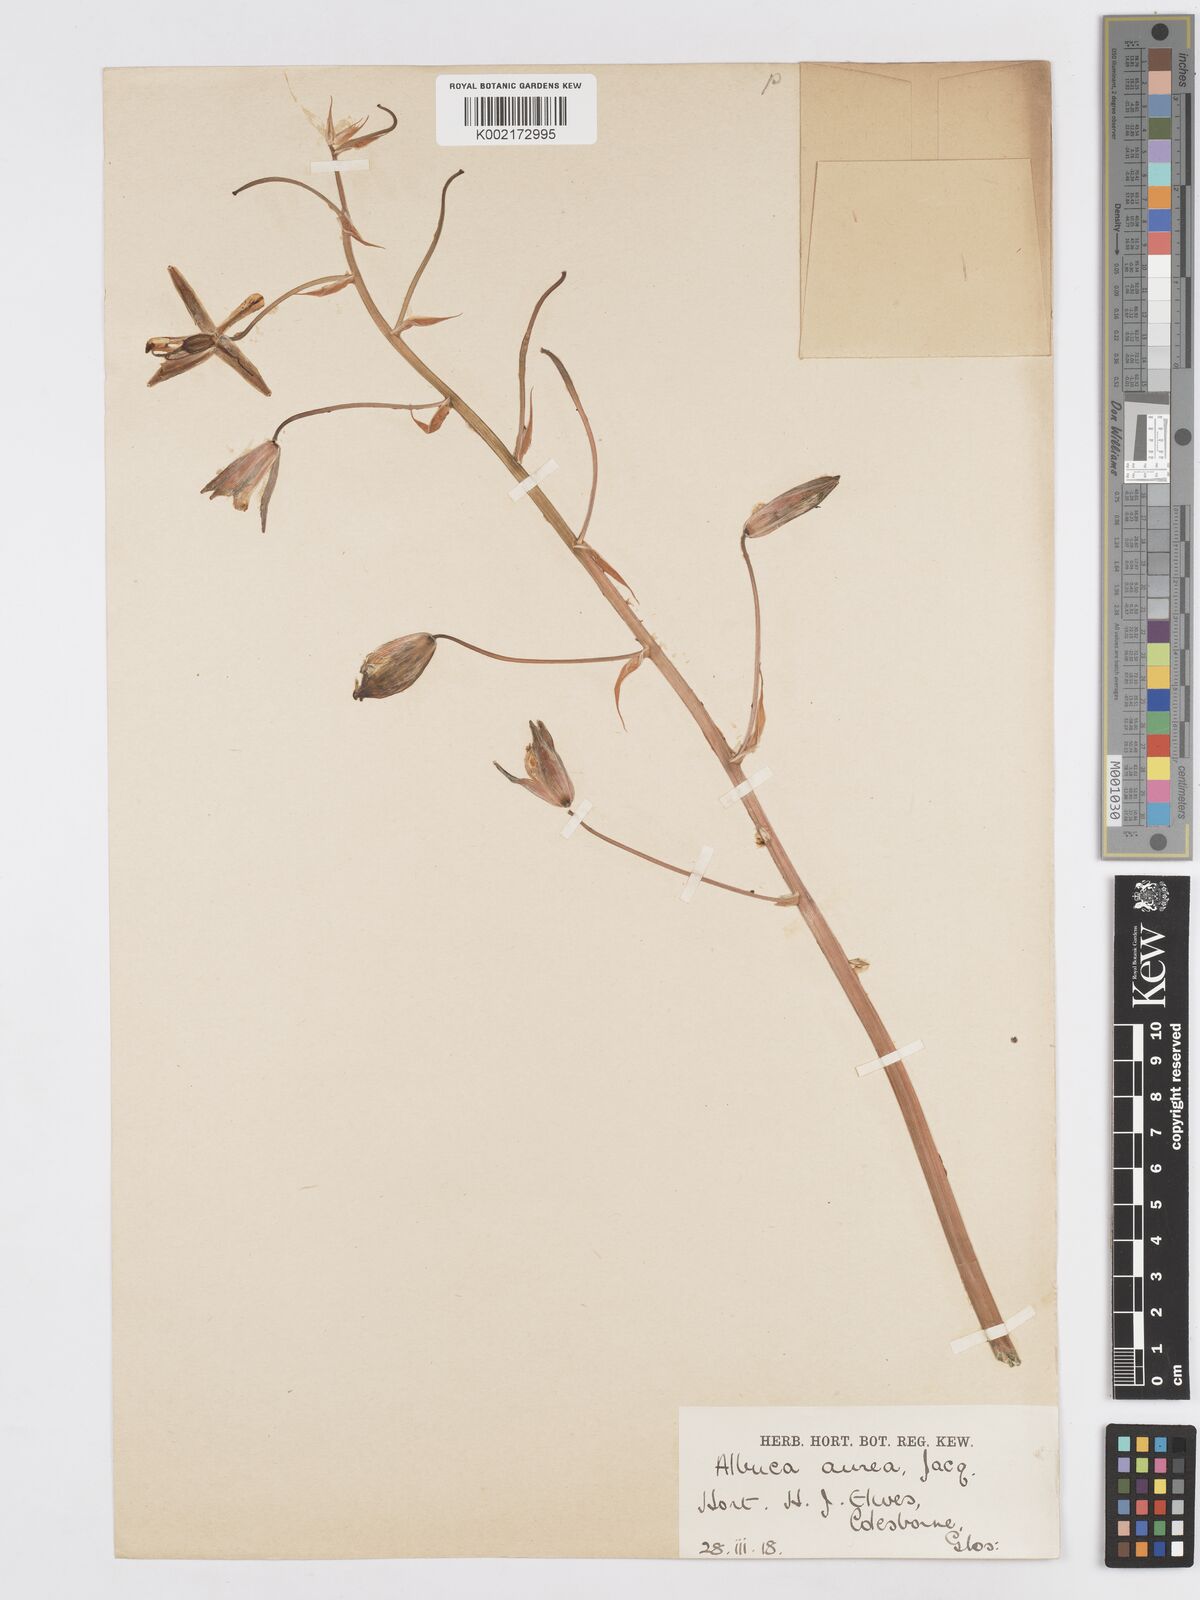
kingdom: Plantae
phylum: Tracheophyta
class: Liliopsida
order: Asparagales
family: Asparagaceae
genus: Albuca
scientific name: Albuca aurea
